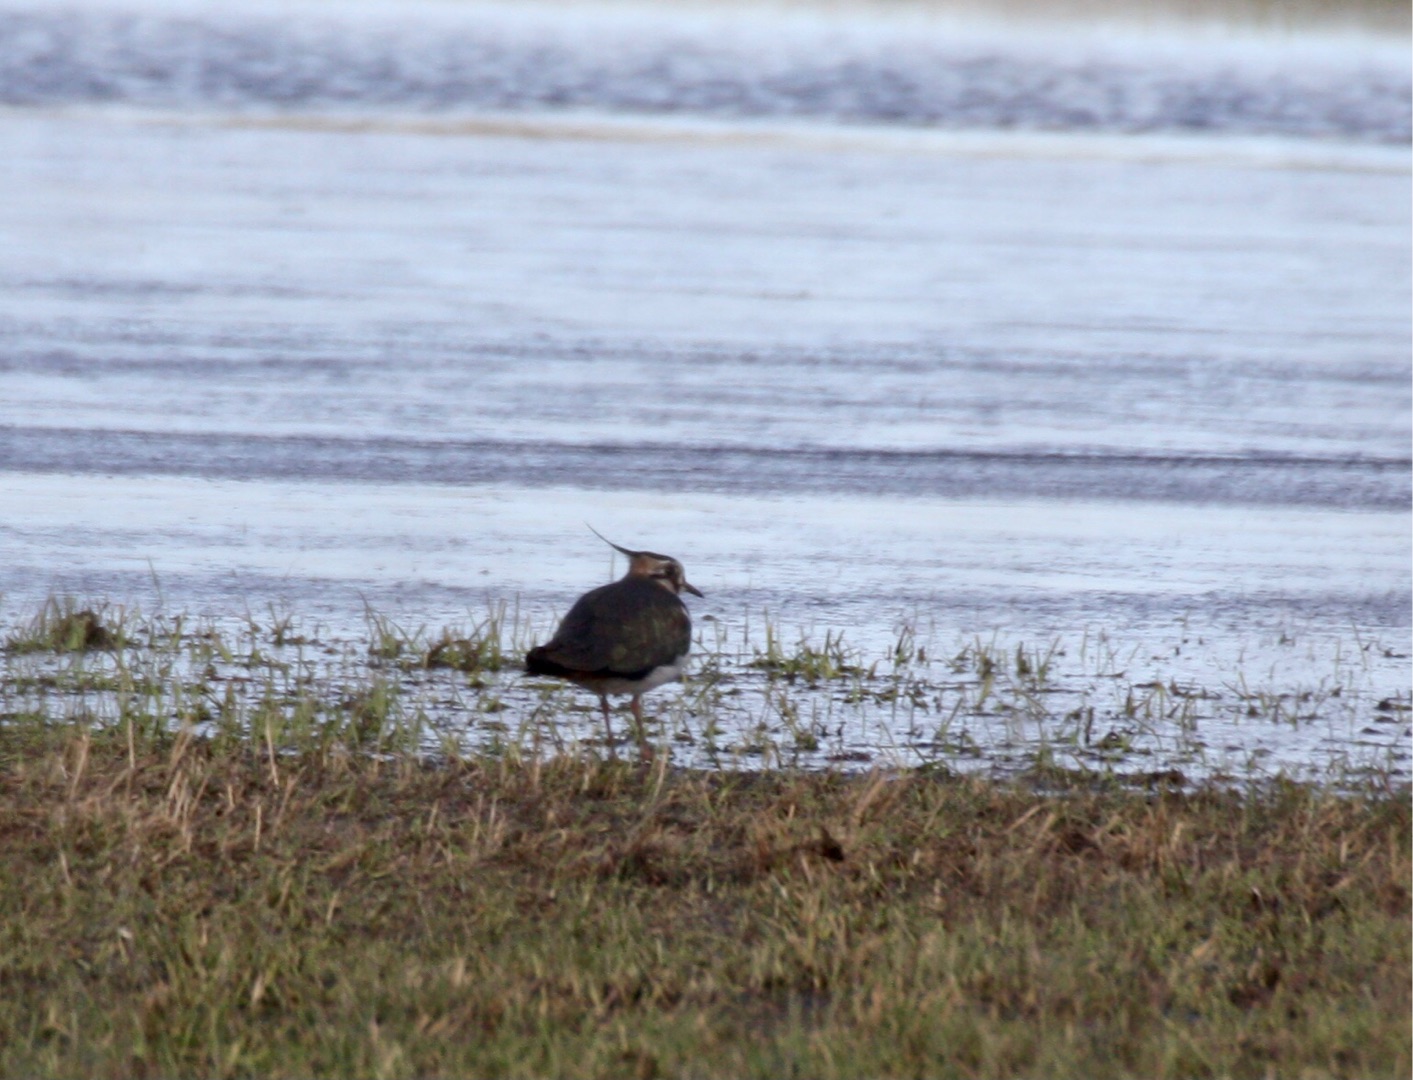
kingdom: Animalia
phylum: Chordata
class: Aves
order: Charadriiformes
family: Charadriidae
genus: Vanellus
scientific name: Vanellus vanellus
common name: Vibe
